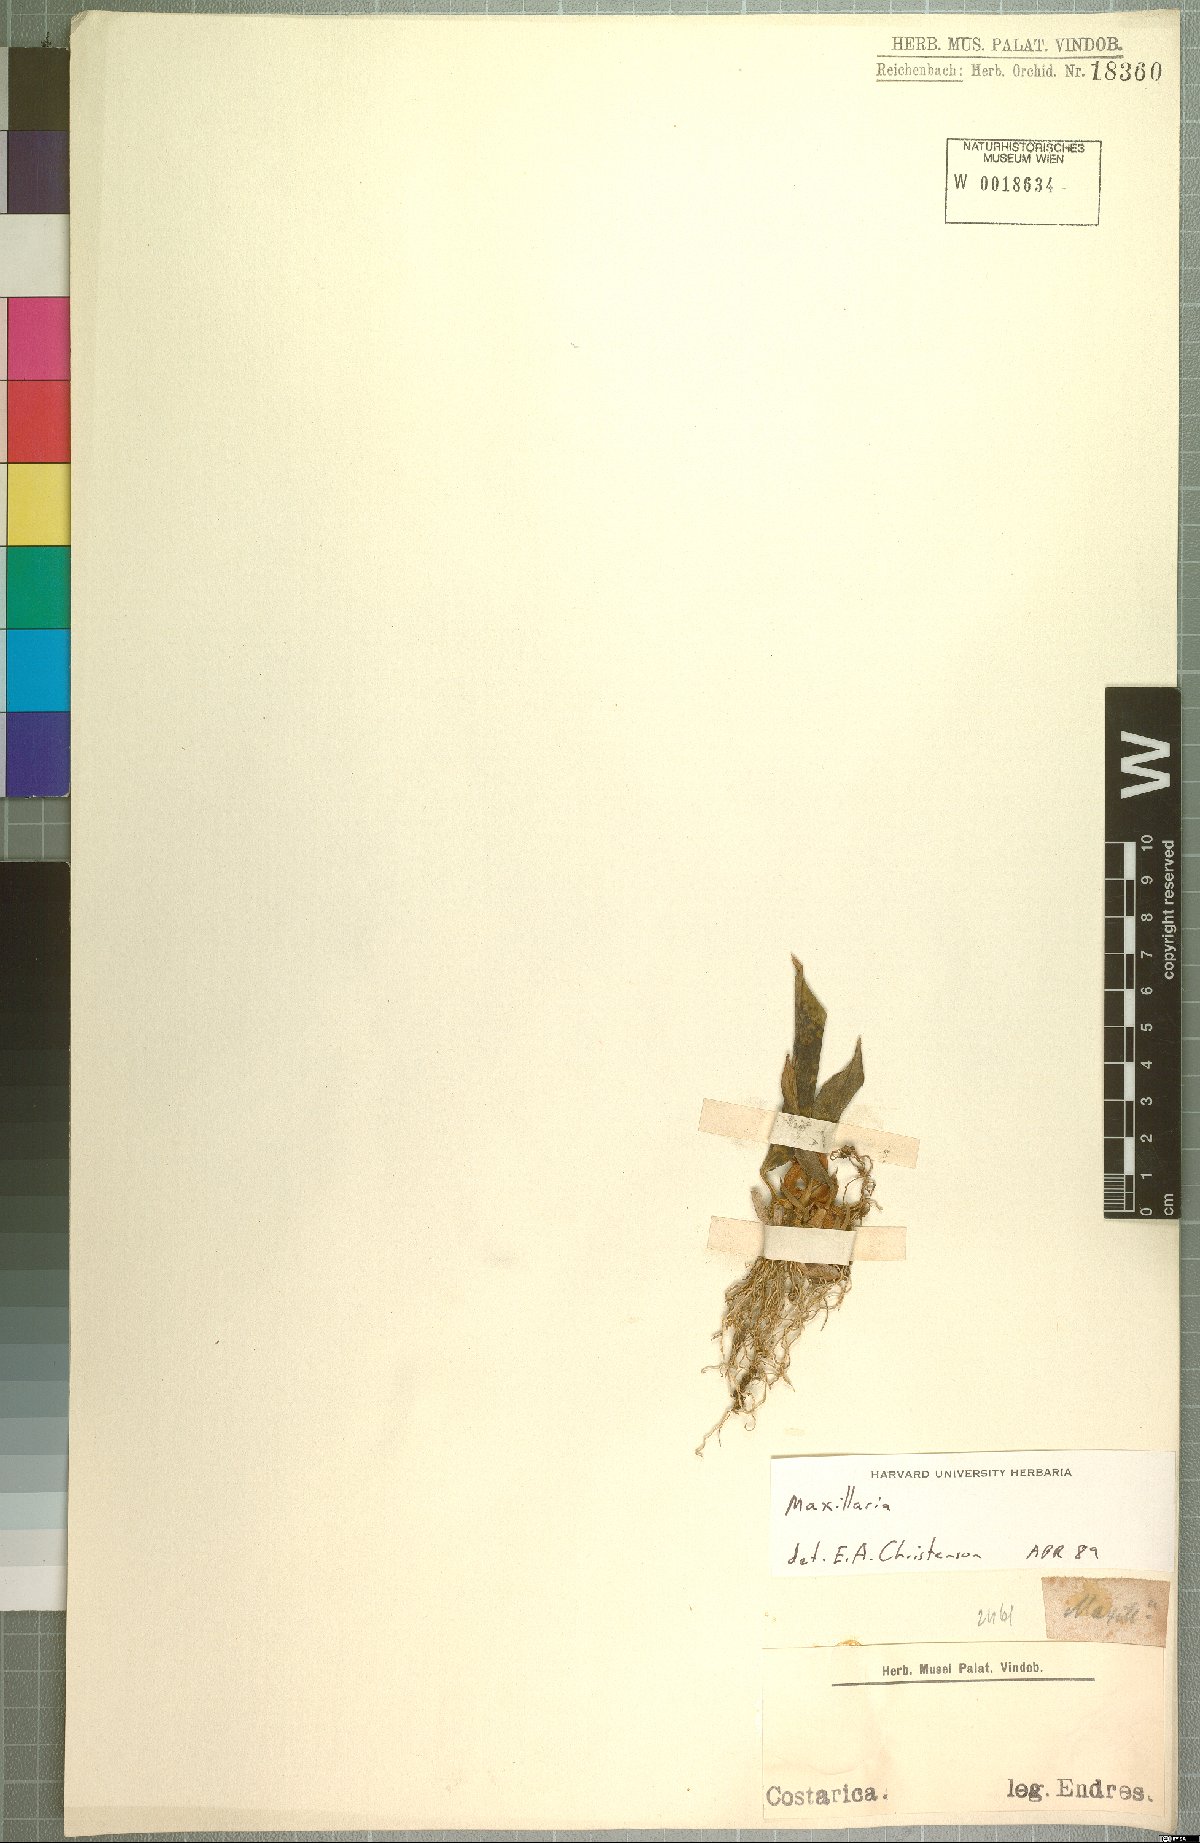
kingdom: Plantae
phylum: Tracheophyta
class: Liliopsida
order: Asparagales
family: Orchidaceae
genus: Maxillaria
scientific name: Maxillaria
